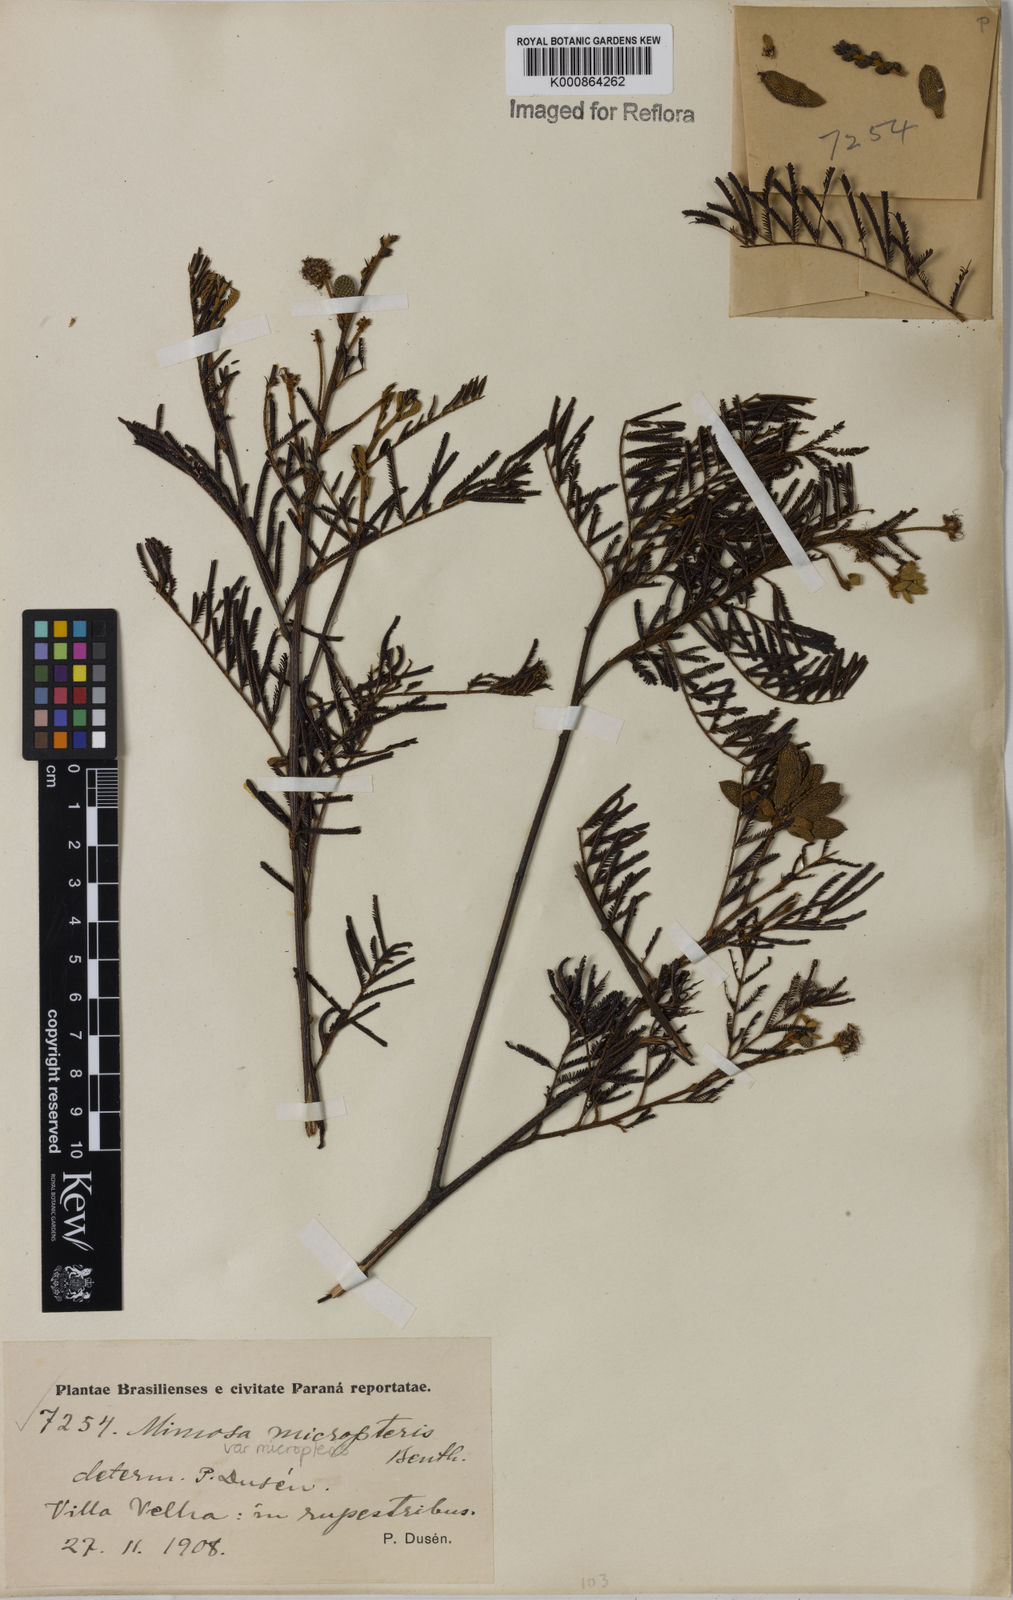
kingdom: Plantae
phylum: Tracheophyta
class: Magnoliopsida
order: Fabales
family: Fabaceae
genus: Mimosa
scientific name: Mimosa micropteris
